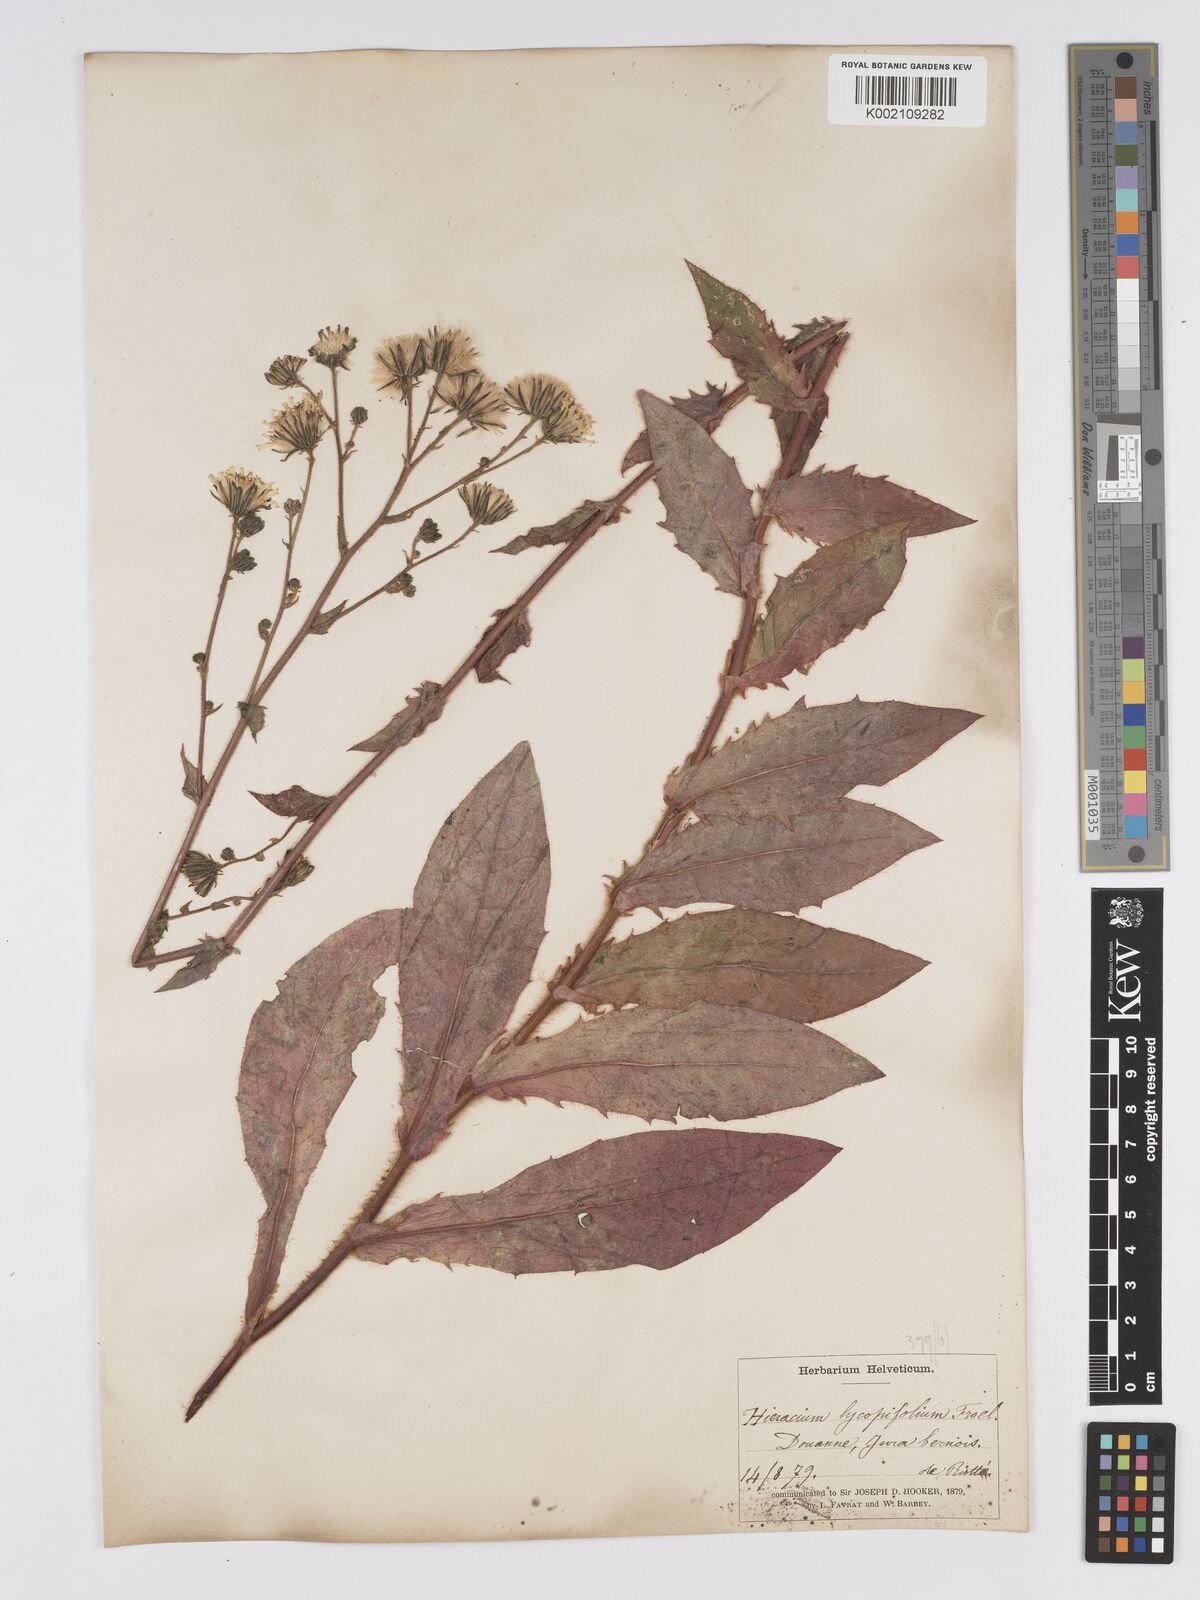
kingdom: Plantae
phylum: Tracheophyta
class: Magnoliopsida
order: Asterales
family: Asteraceae
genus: Hieracium
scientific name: Hieracium lycopifolium
